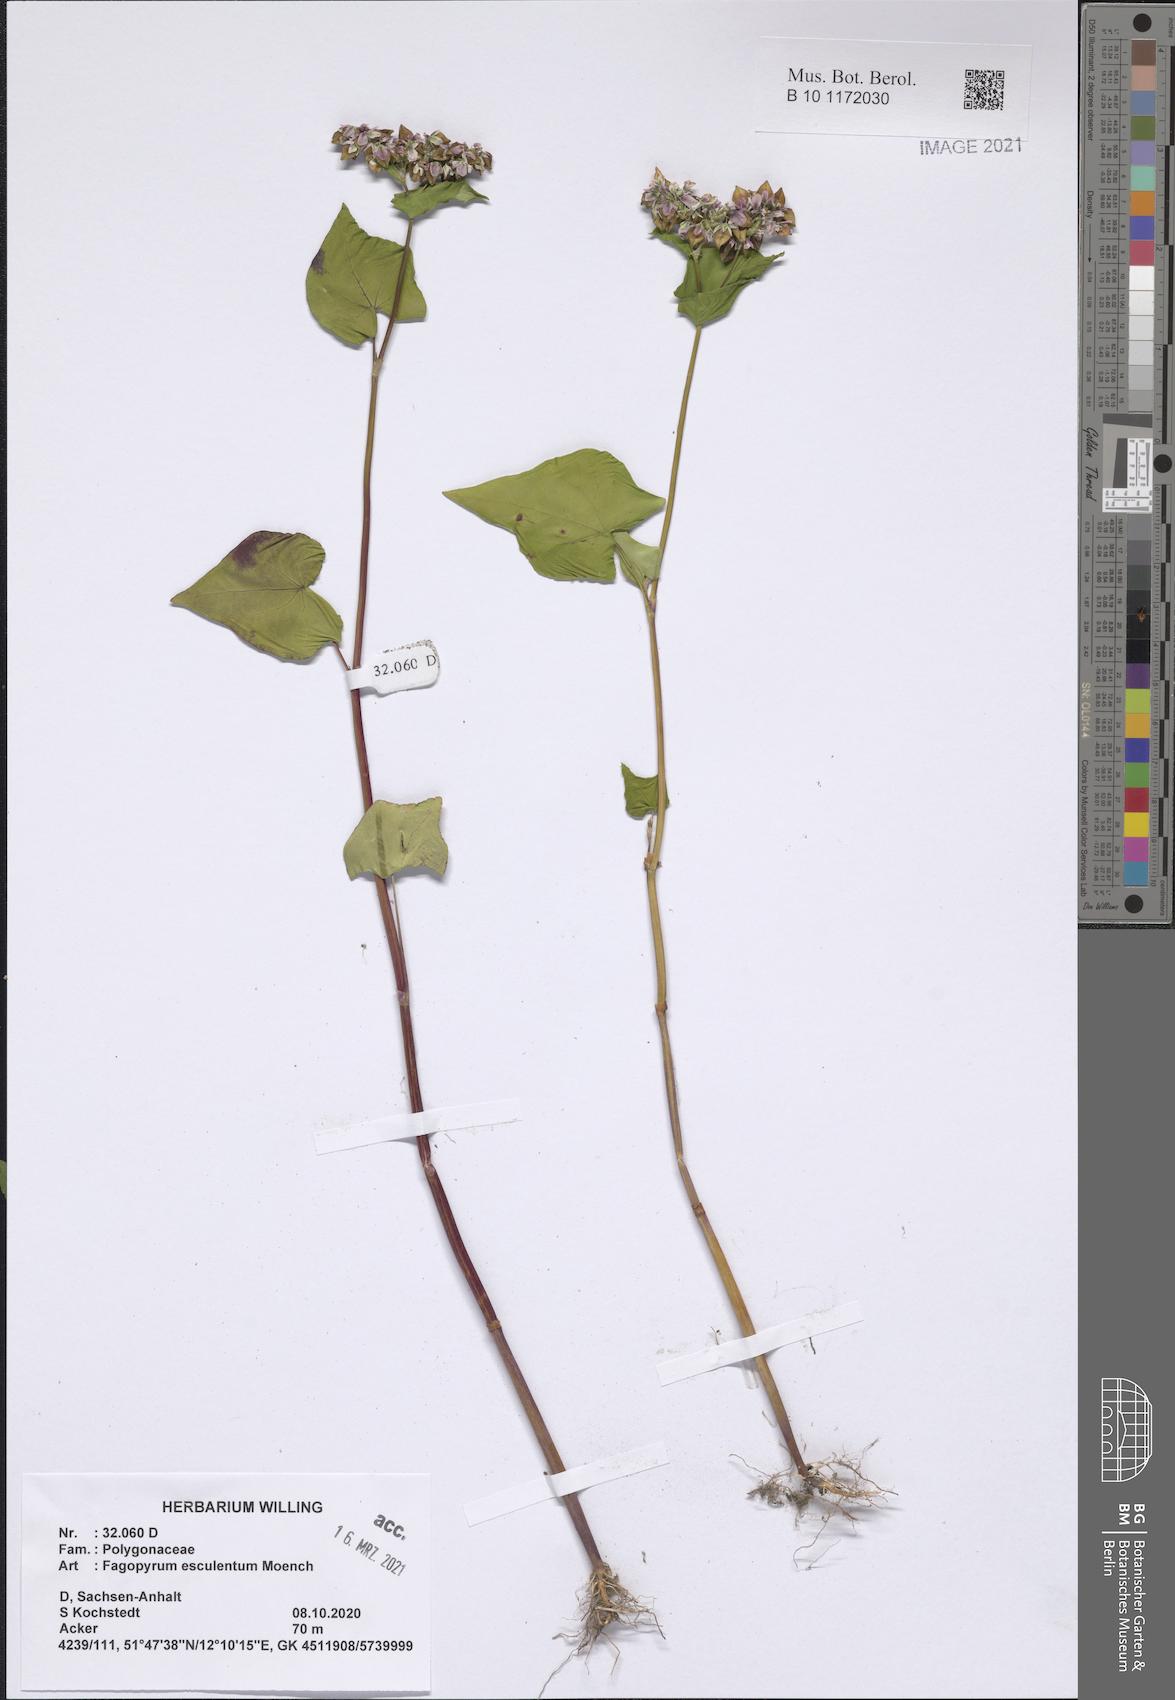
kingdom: Plantae
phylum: Tracheophyta
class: Magnoliopsida
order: Caryophyllales
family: Polygonaceae
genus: Fagopyrum
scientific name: Fagopyrum esculentum
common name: Buckwheat
